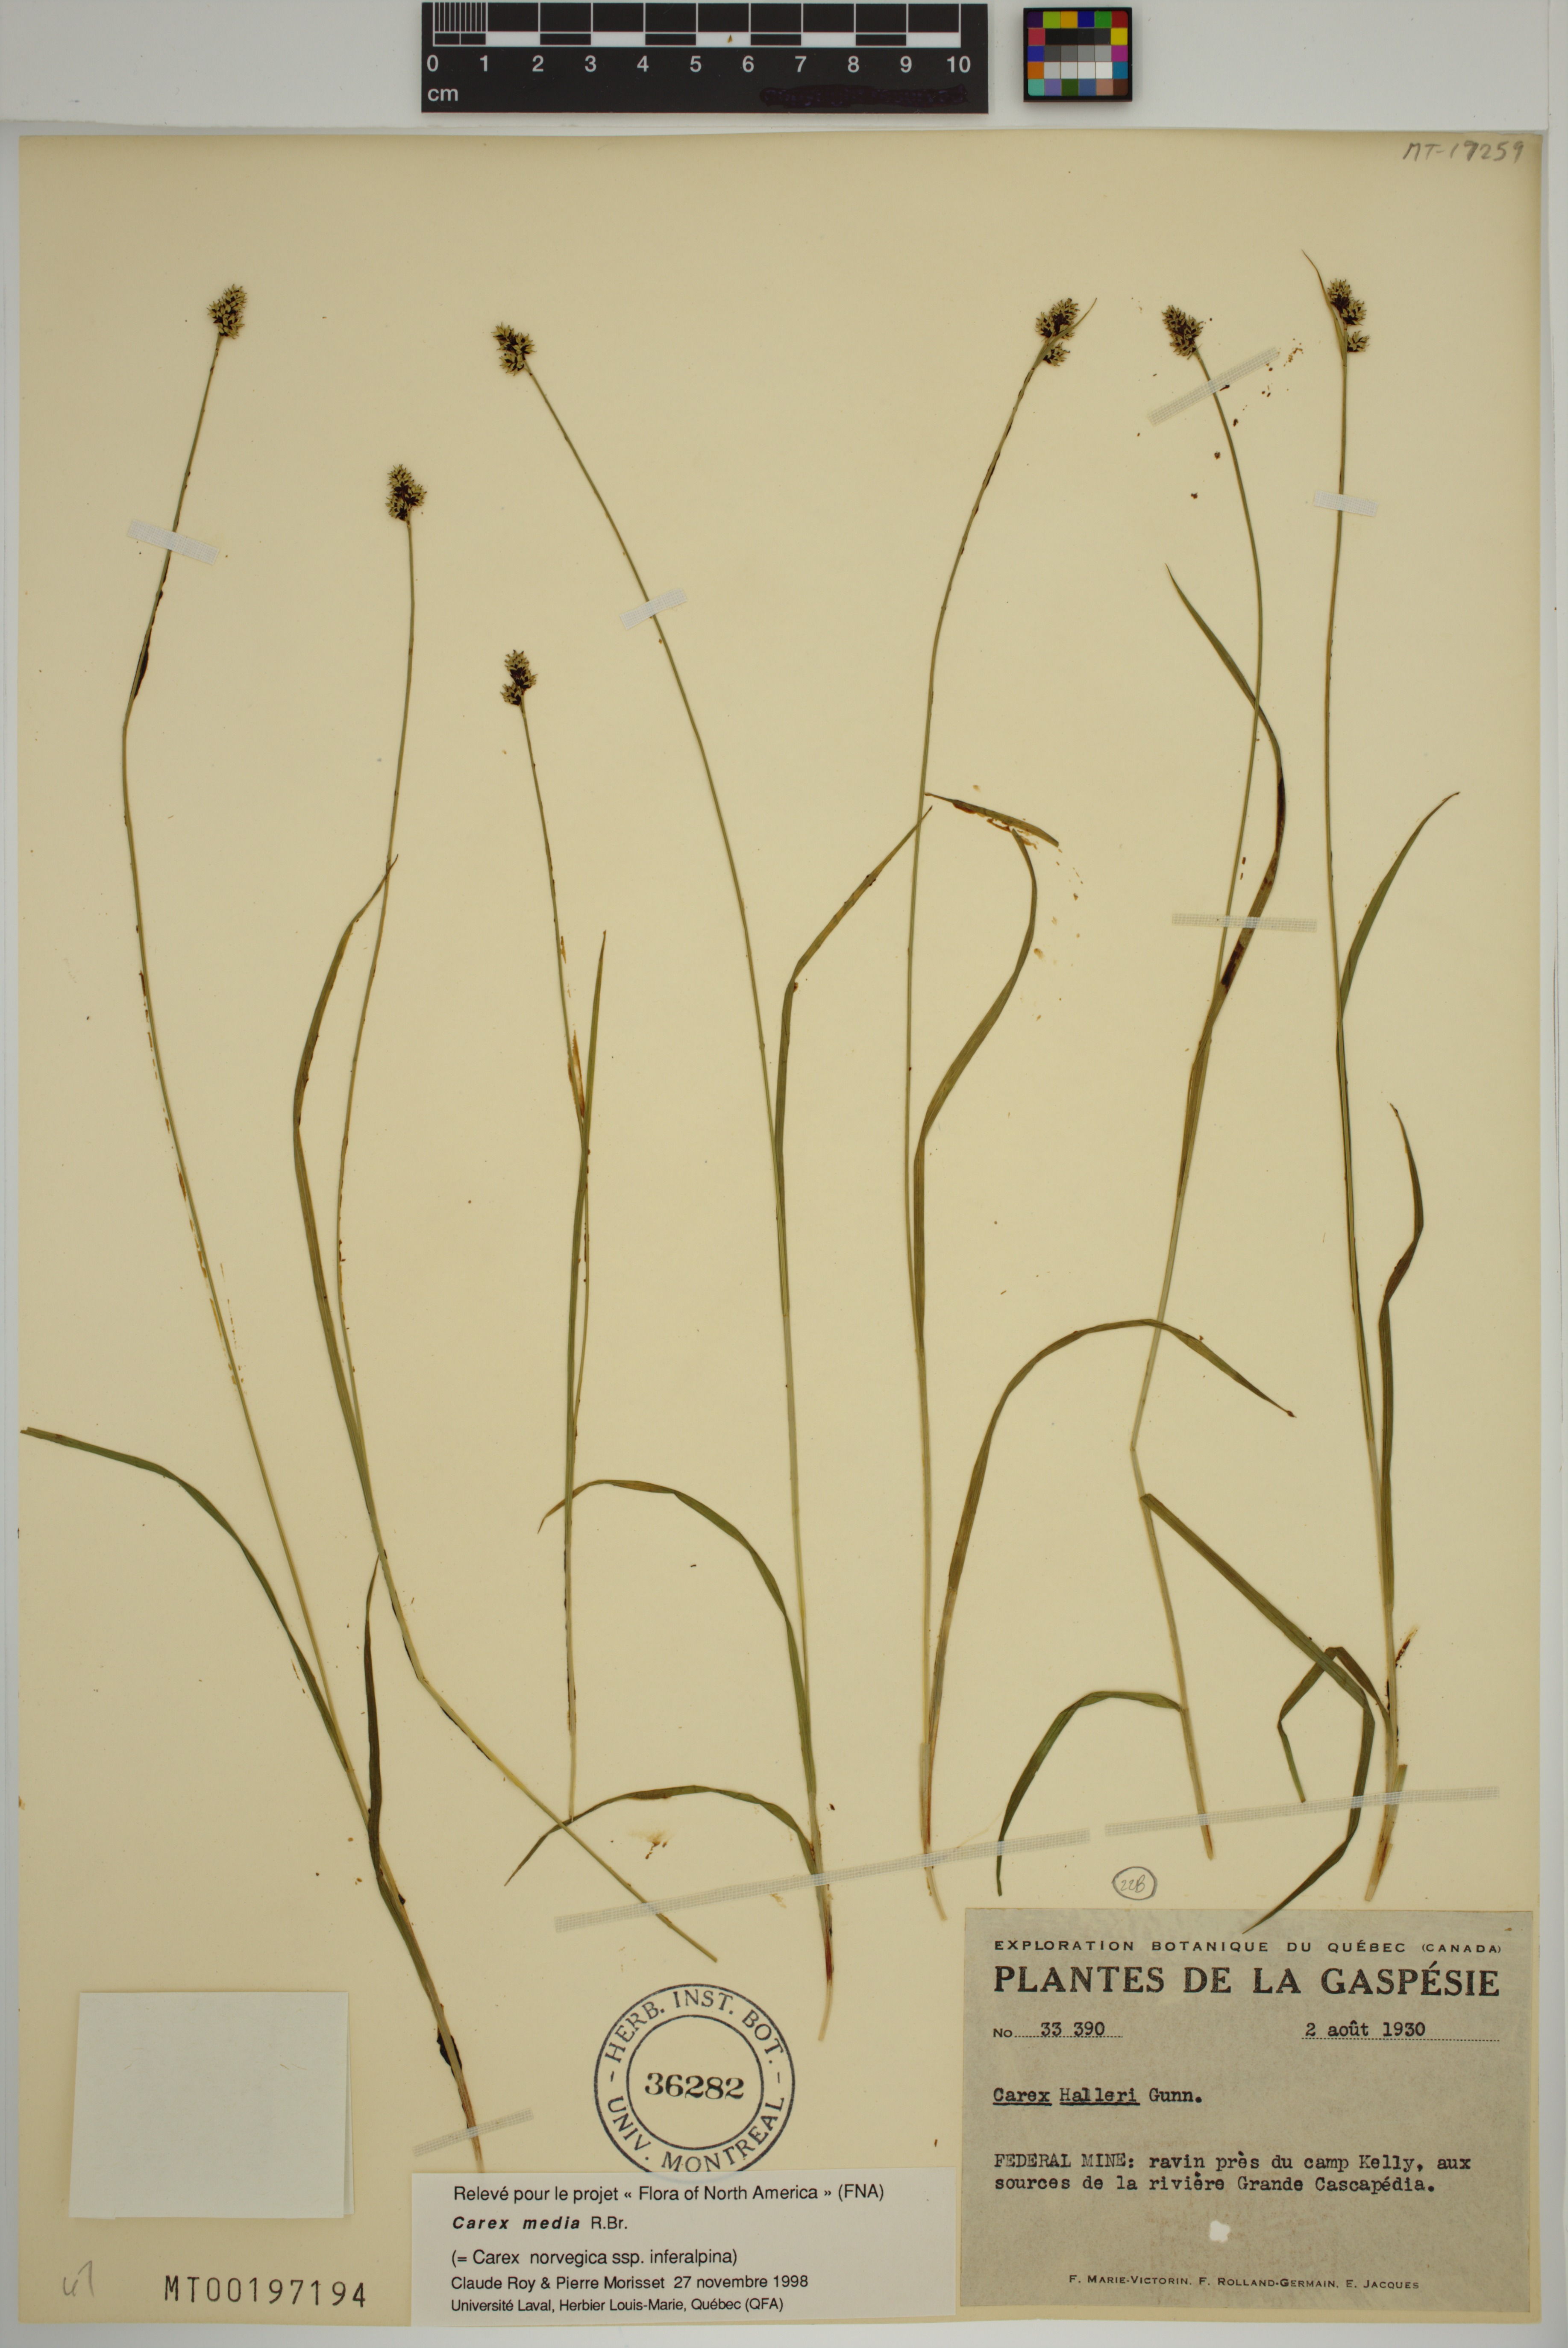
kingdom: Plantae
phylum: Tracheophyta
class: Liliopsida
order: Poales
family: Cyperaceae
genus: Carex
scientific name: Carex media
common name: Alpine sedge
